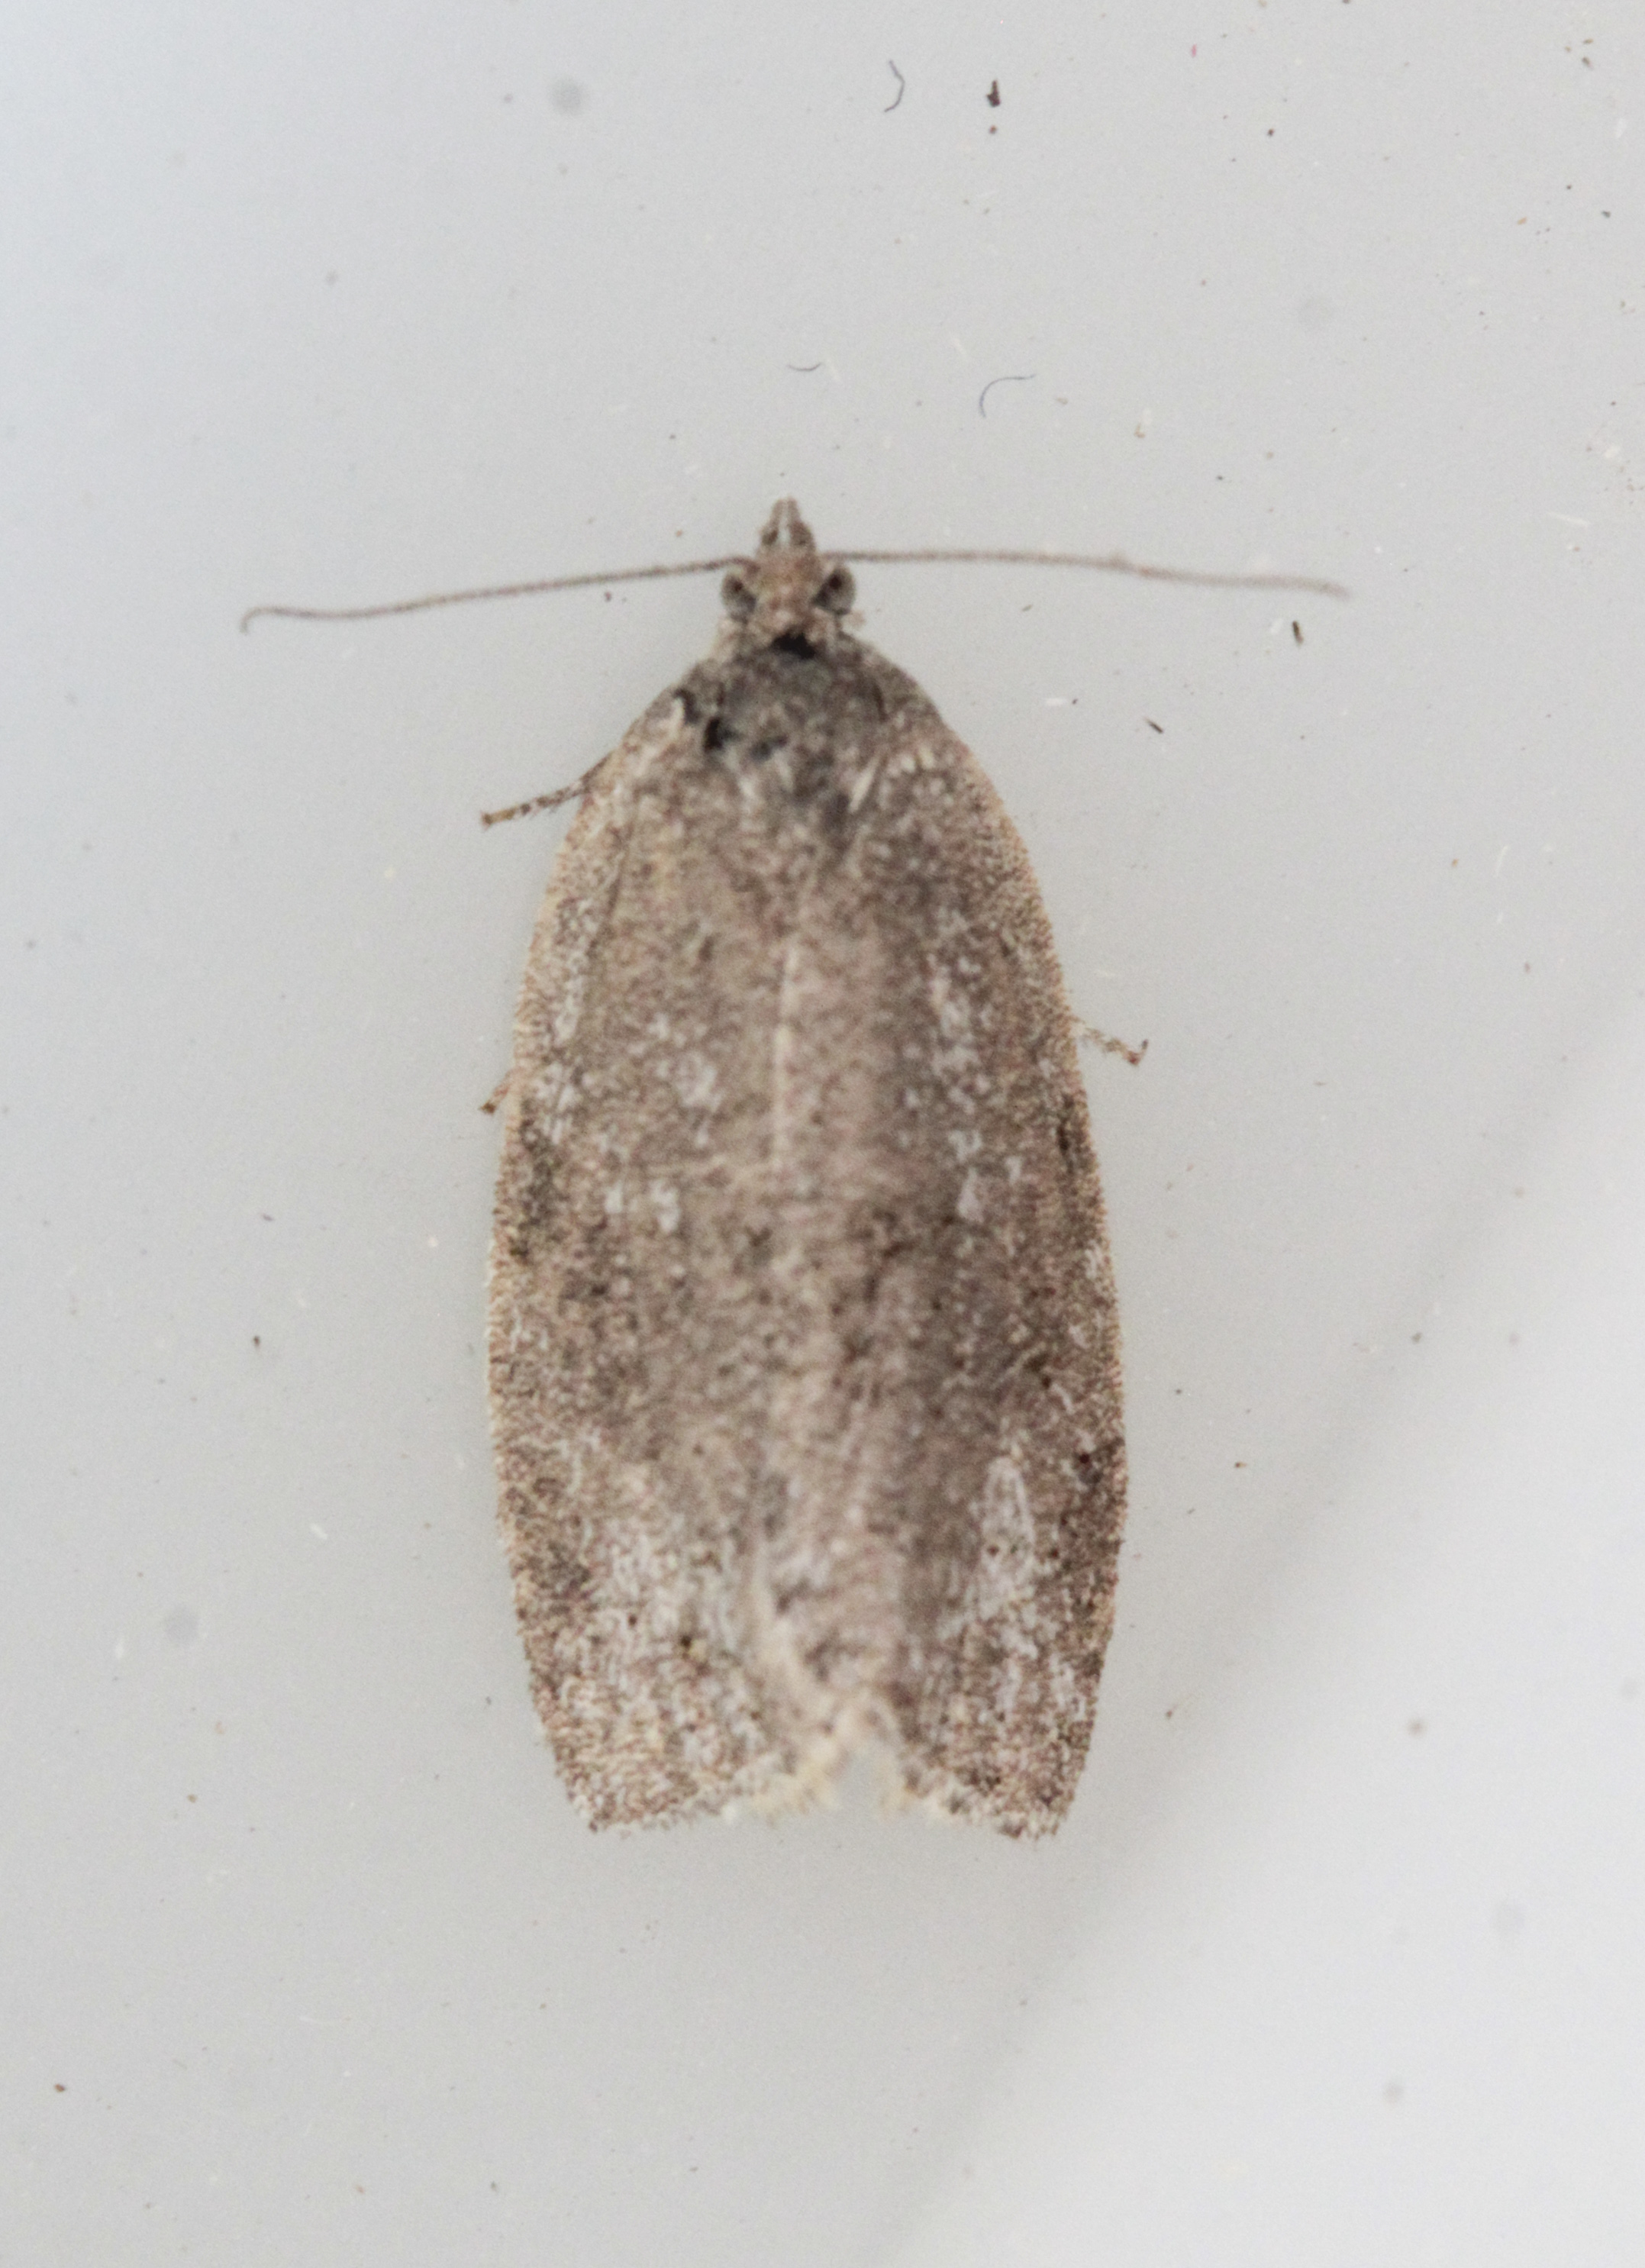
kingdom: Animalia
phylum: Arthropoda
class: Insecta
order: Lepidoptera
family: Tortricidae
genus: Syndemis
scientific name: Syndemis musculana
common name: Dark-barred twist
